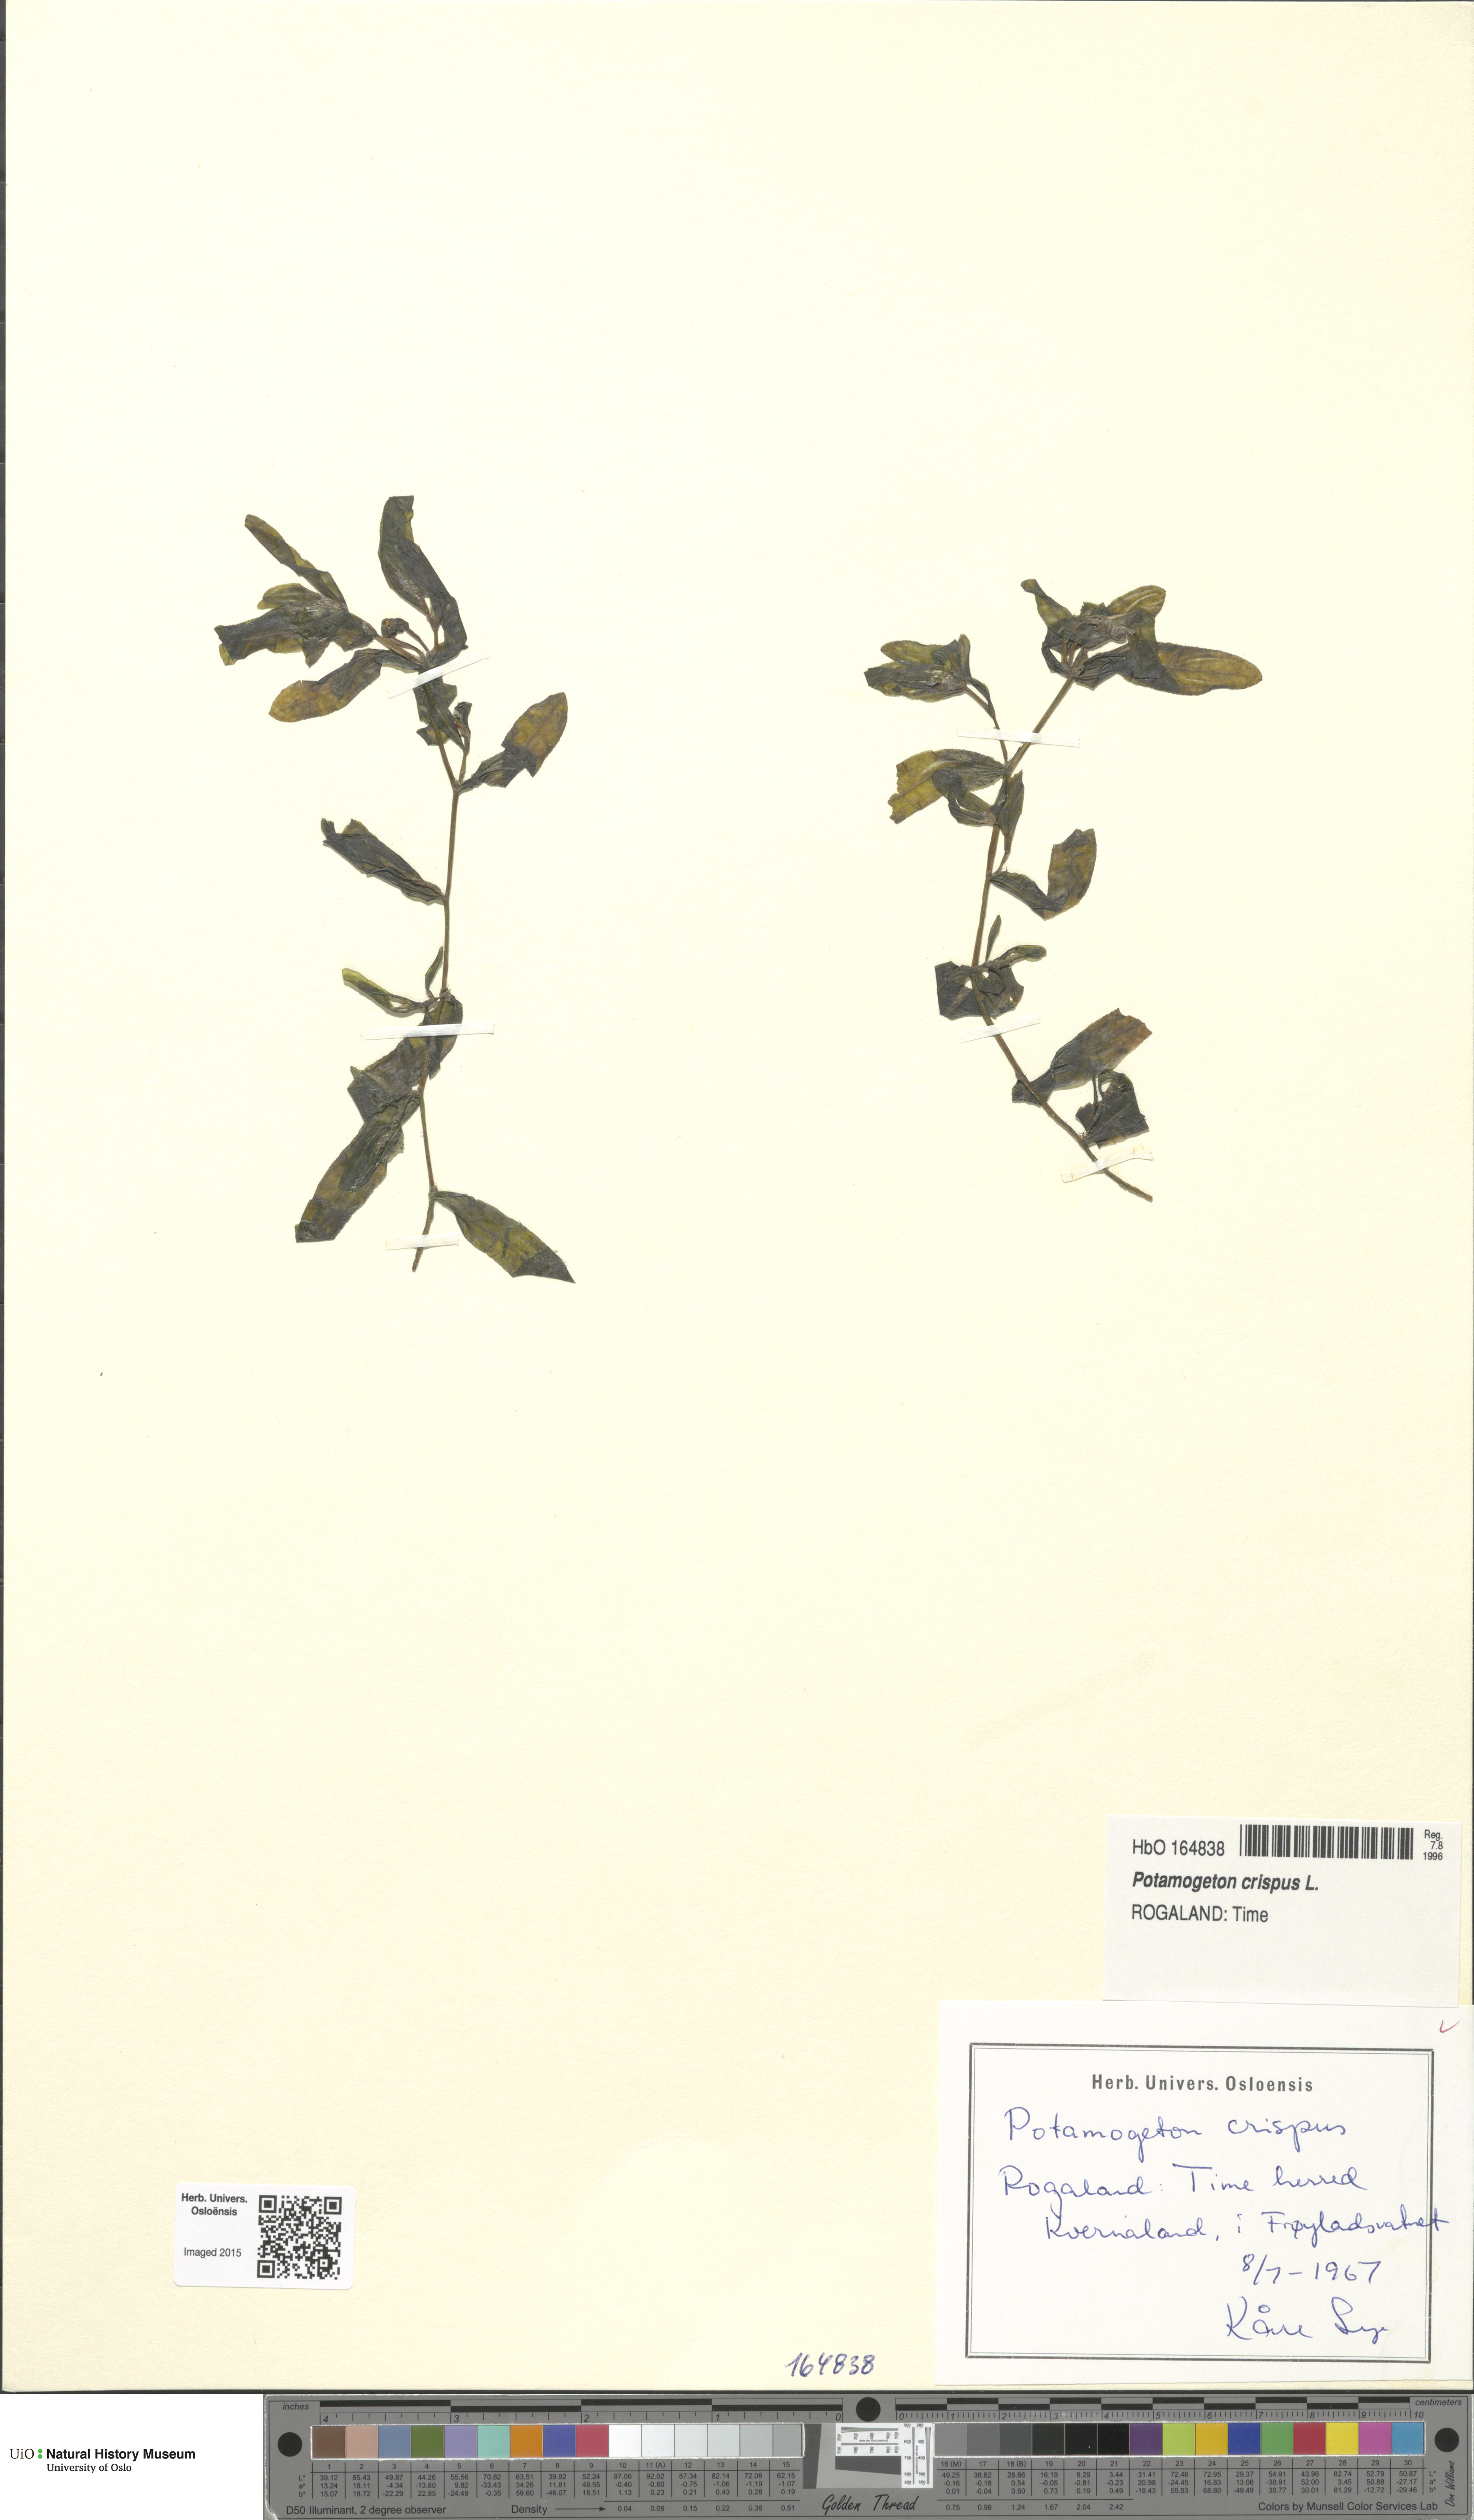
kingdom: Plantae
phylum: Tracheophyta
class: Liliopsida
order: Alismatales
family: Potamogetonaceae
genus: Potamogeton
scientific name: Potamogeton
